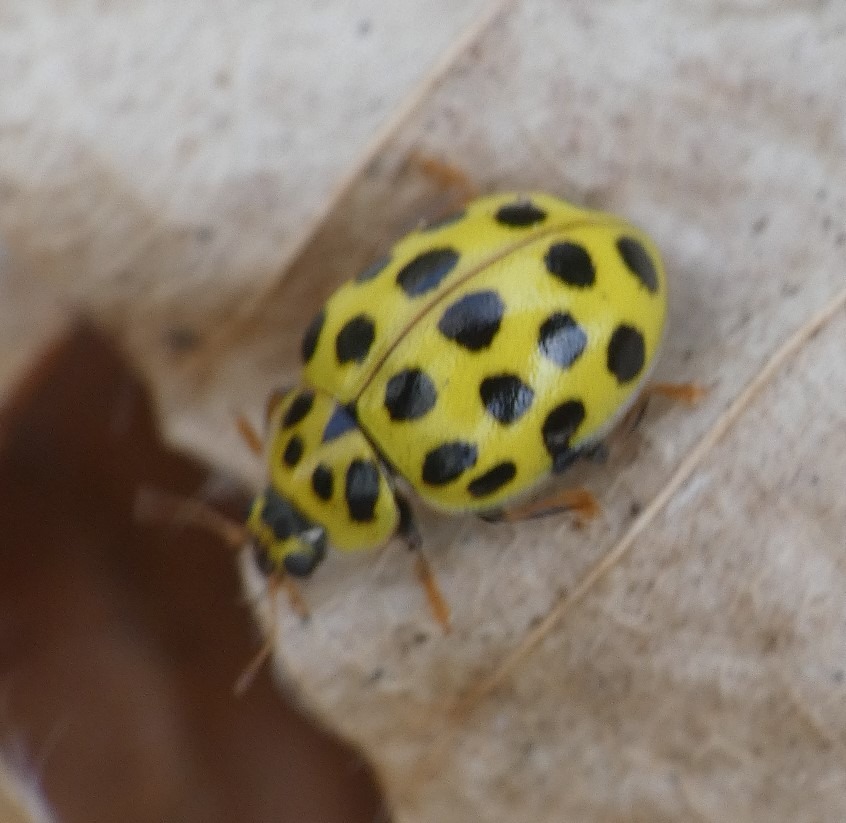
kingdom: Animalia
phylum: Arthropoda
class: Insecta
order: Coleoptera
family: Coccinellidae
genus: Psyllobora
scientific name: Psyllobora vigintiduopunctata
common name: Toogtyveplettet mariehøne
